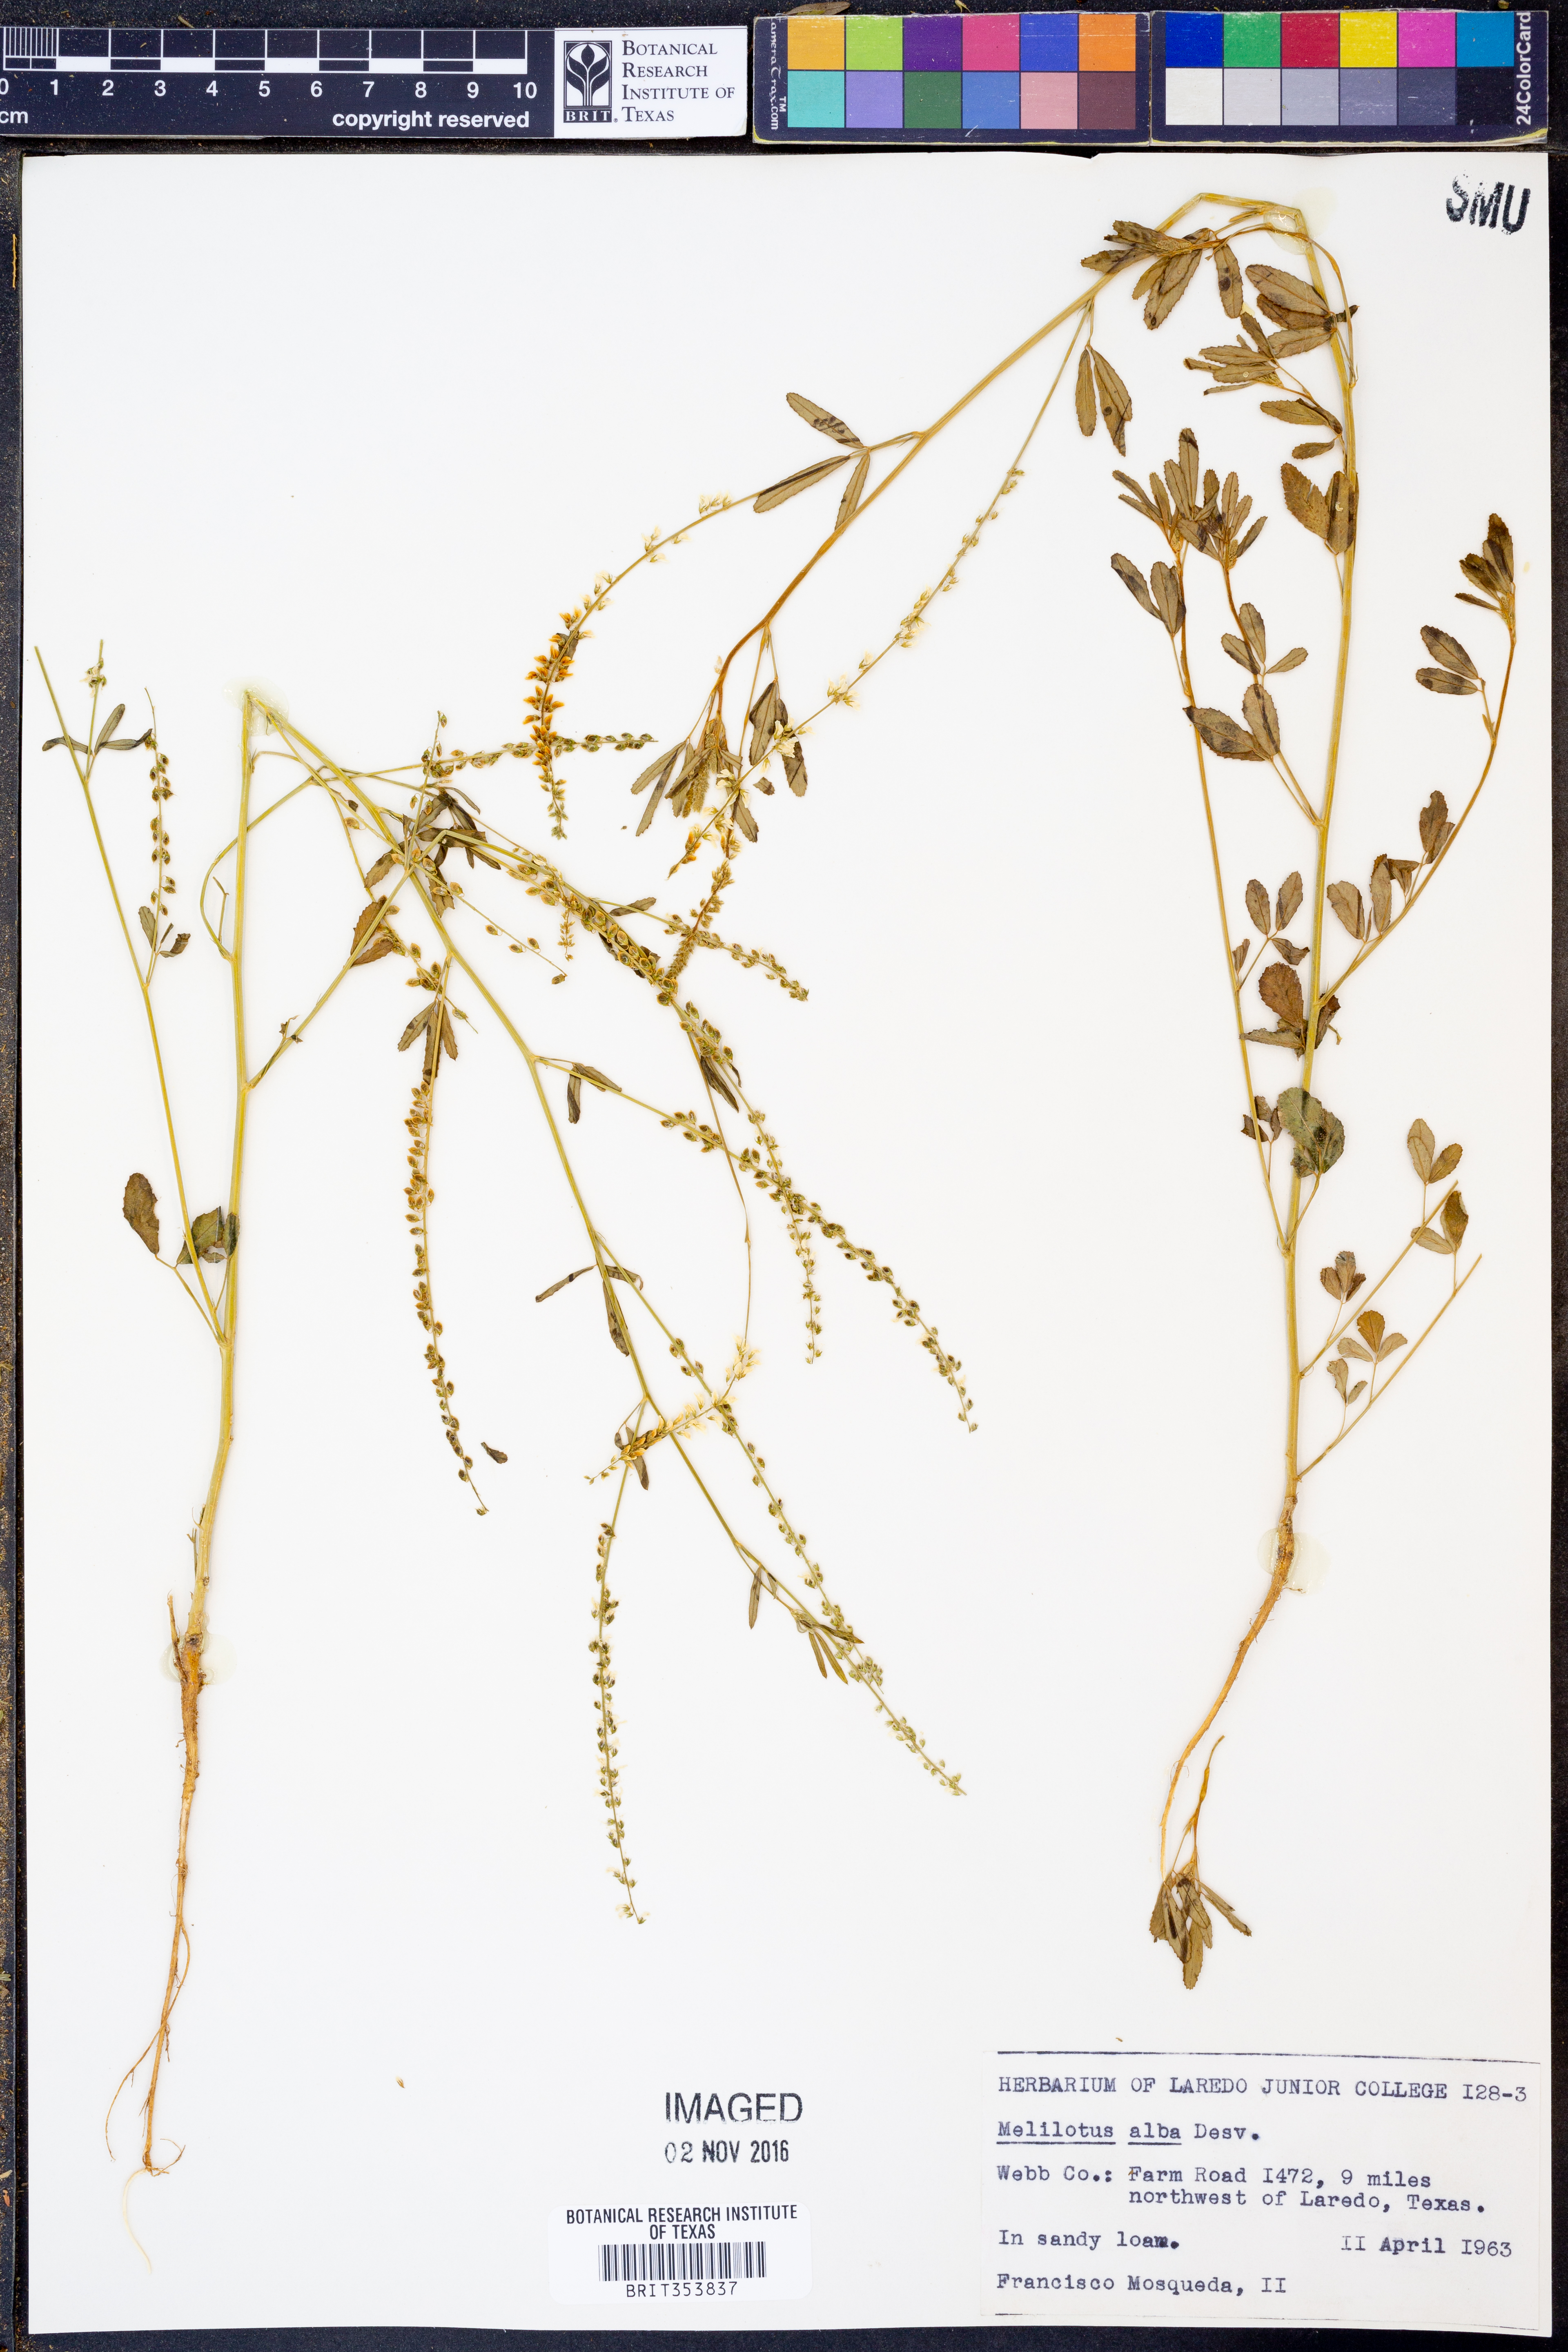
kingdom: Plantae
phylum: Tracheophyta
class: Magnoliopsida
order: Fabales
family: Fabaceae
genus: Melilotus
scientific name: Melilotus albus
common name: White melilot
